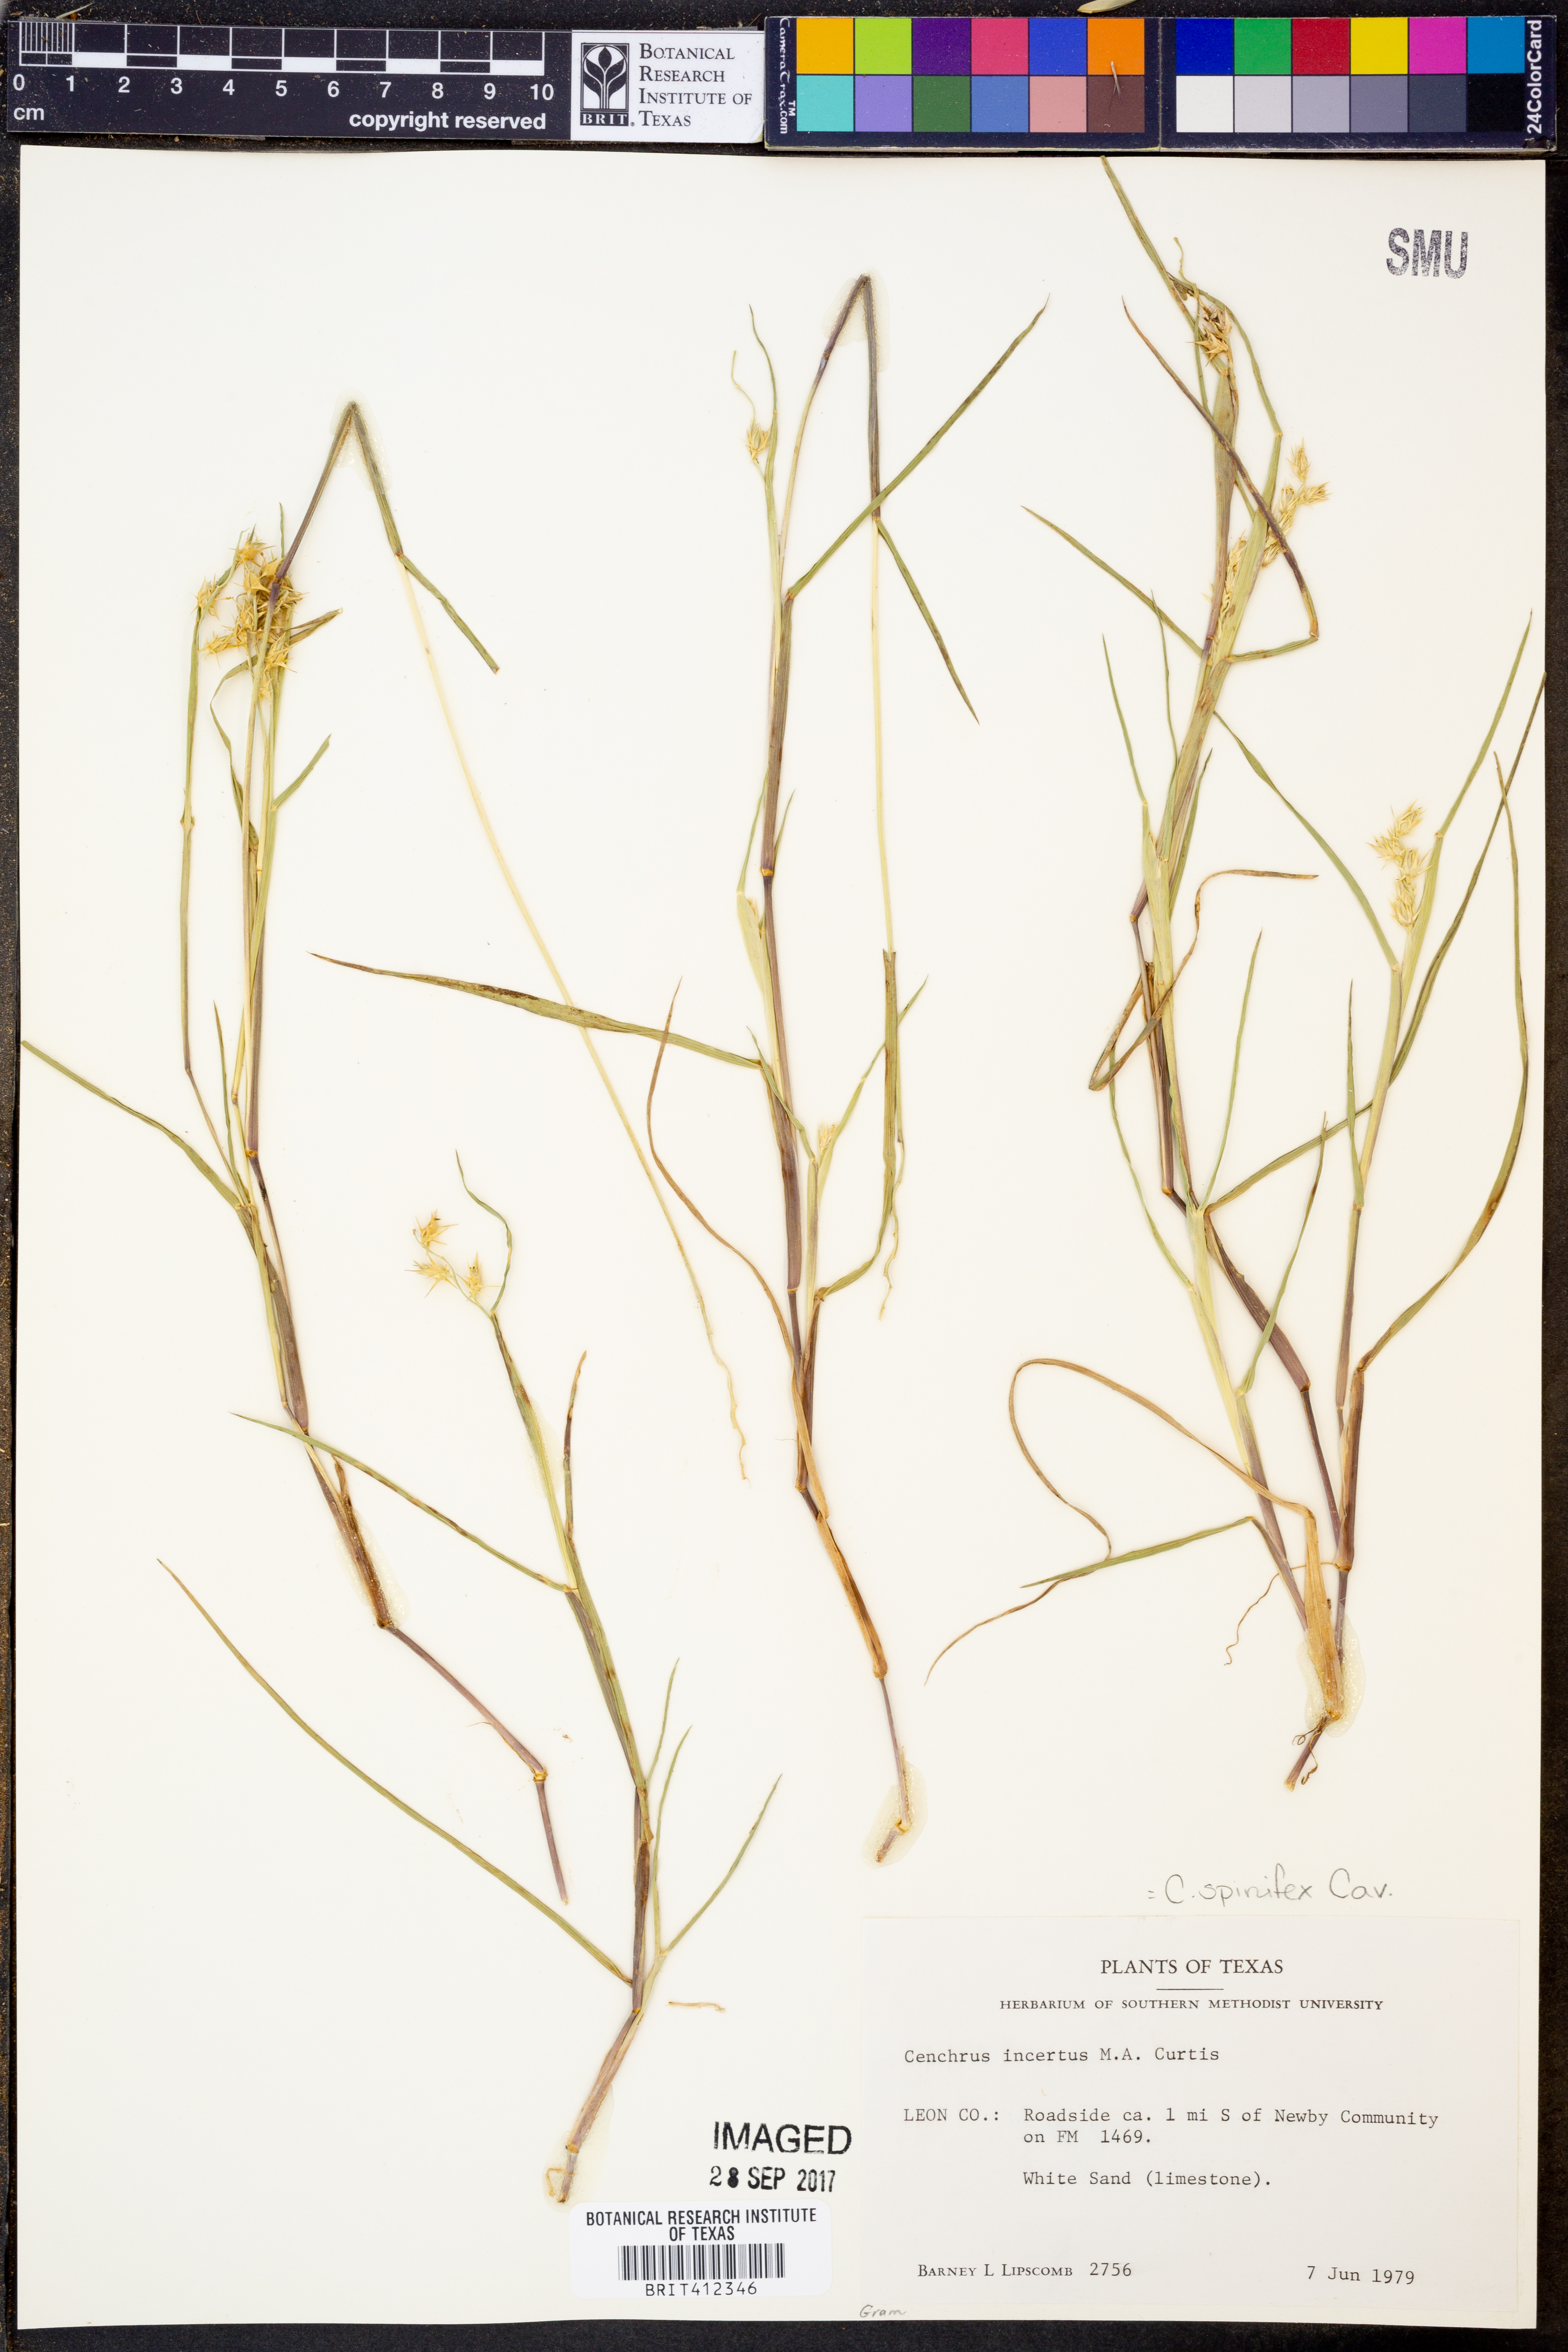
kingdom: Plantae
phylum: Tracheophyta
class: Liliopsida
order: Poales
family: Poaceae
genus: Cenchrus
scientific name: Cenchrus spinifex
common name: Coast sandbur
